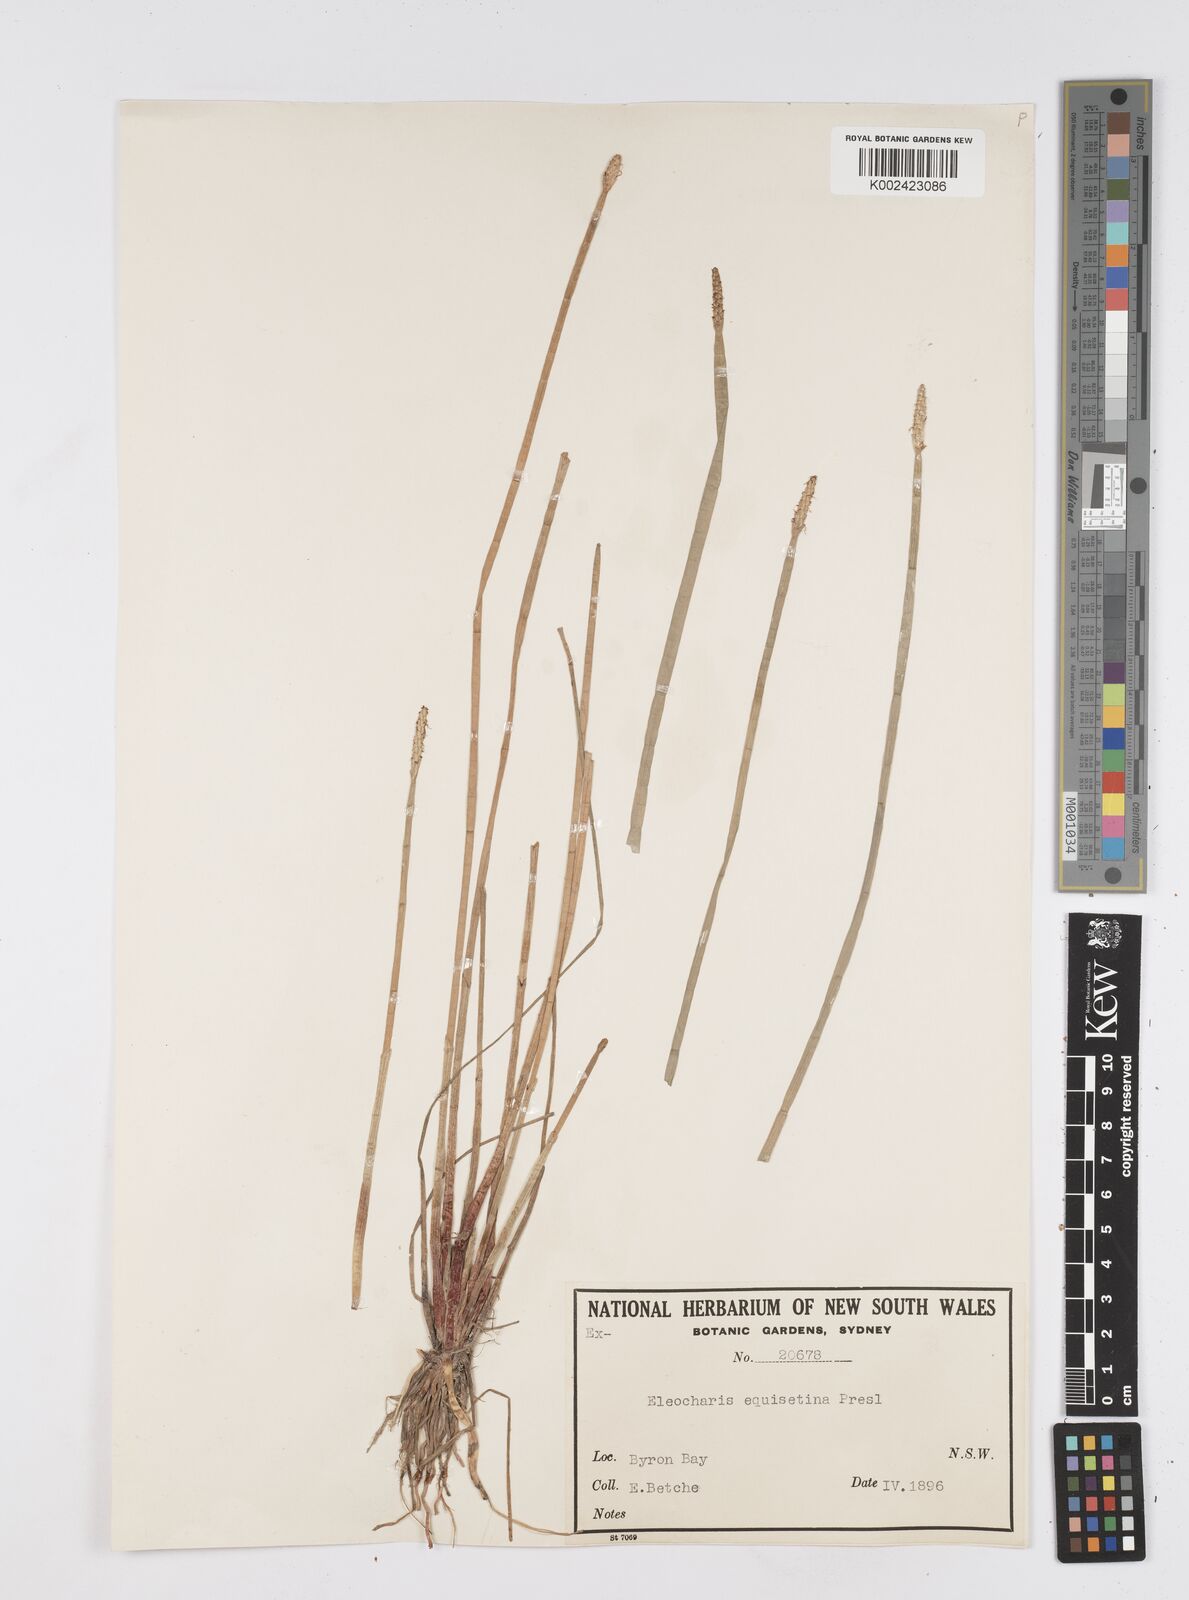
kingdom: Plantae
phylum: Tracheophyta
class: Liliopsida
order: Poales
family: Cyperaceae
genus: Eleocharis
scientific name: Eleocharis dulcis
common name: Chinese water chestnut
